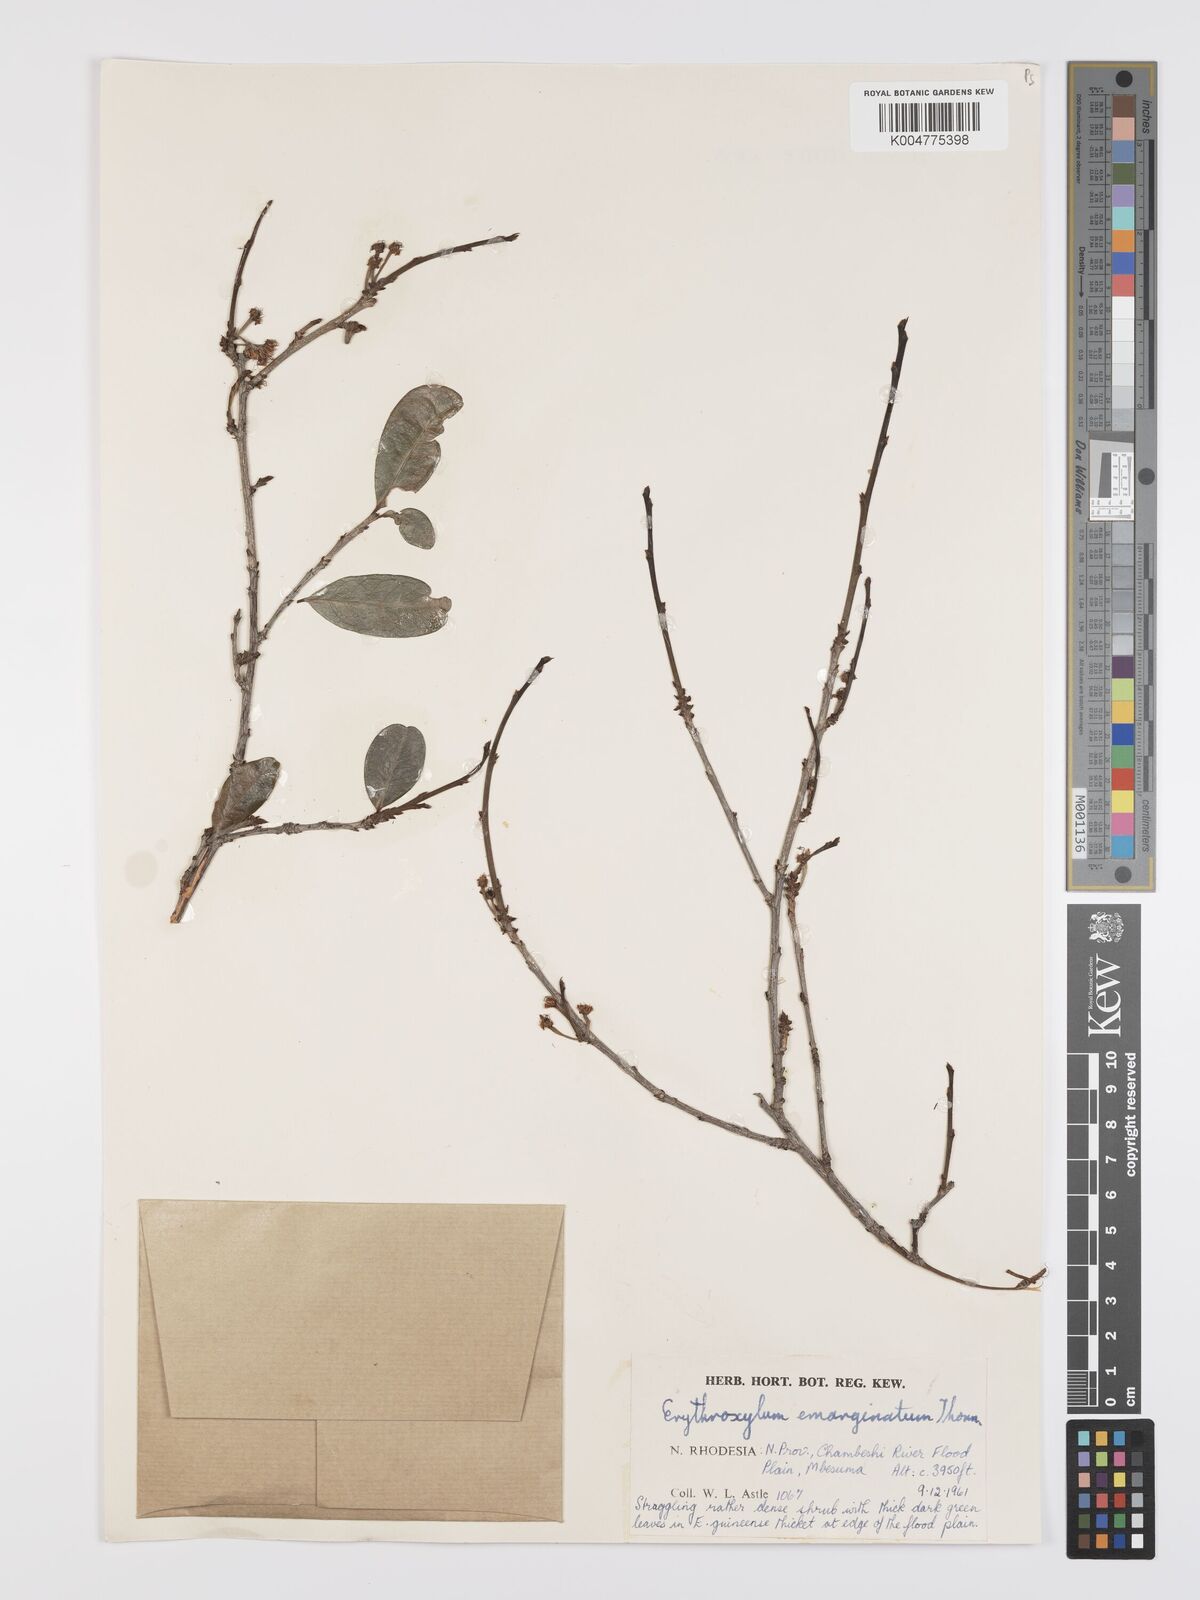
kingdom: Plantae
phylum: Tracheophyta
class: Magnoliopsida
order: Malpighiales
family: Erythroxylaceae
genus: Erythroxylum
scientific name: Erythroxylum emarginatum
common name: African coca-tree
